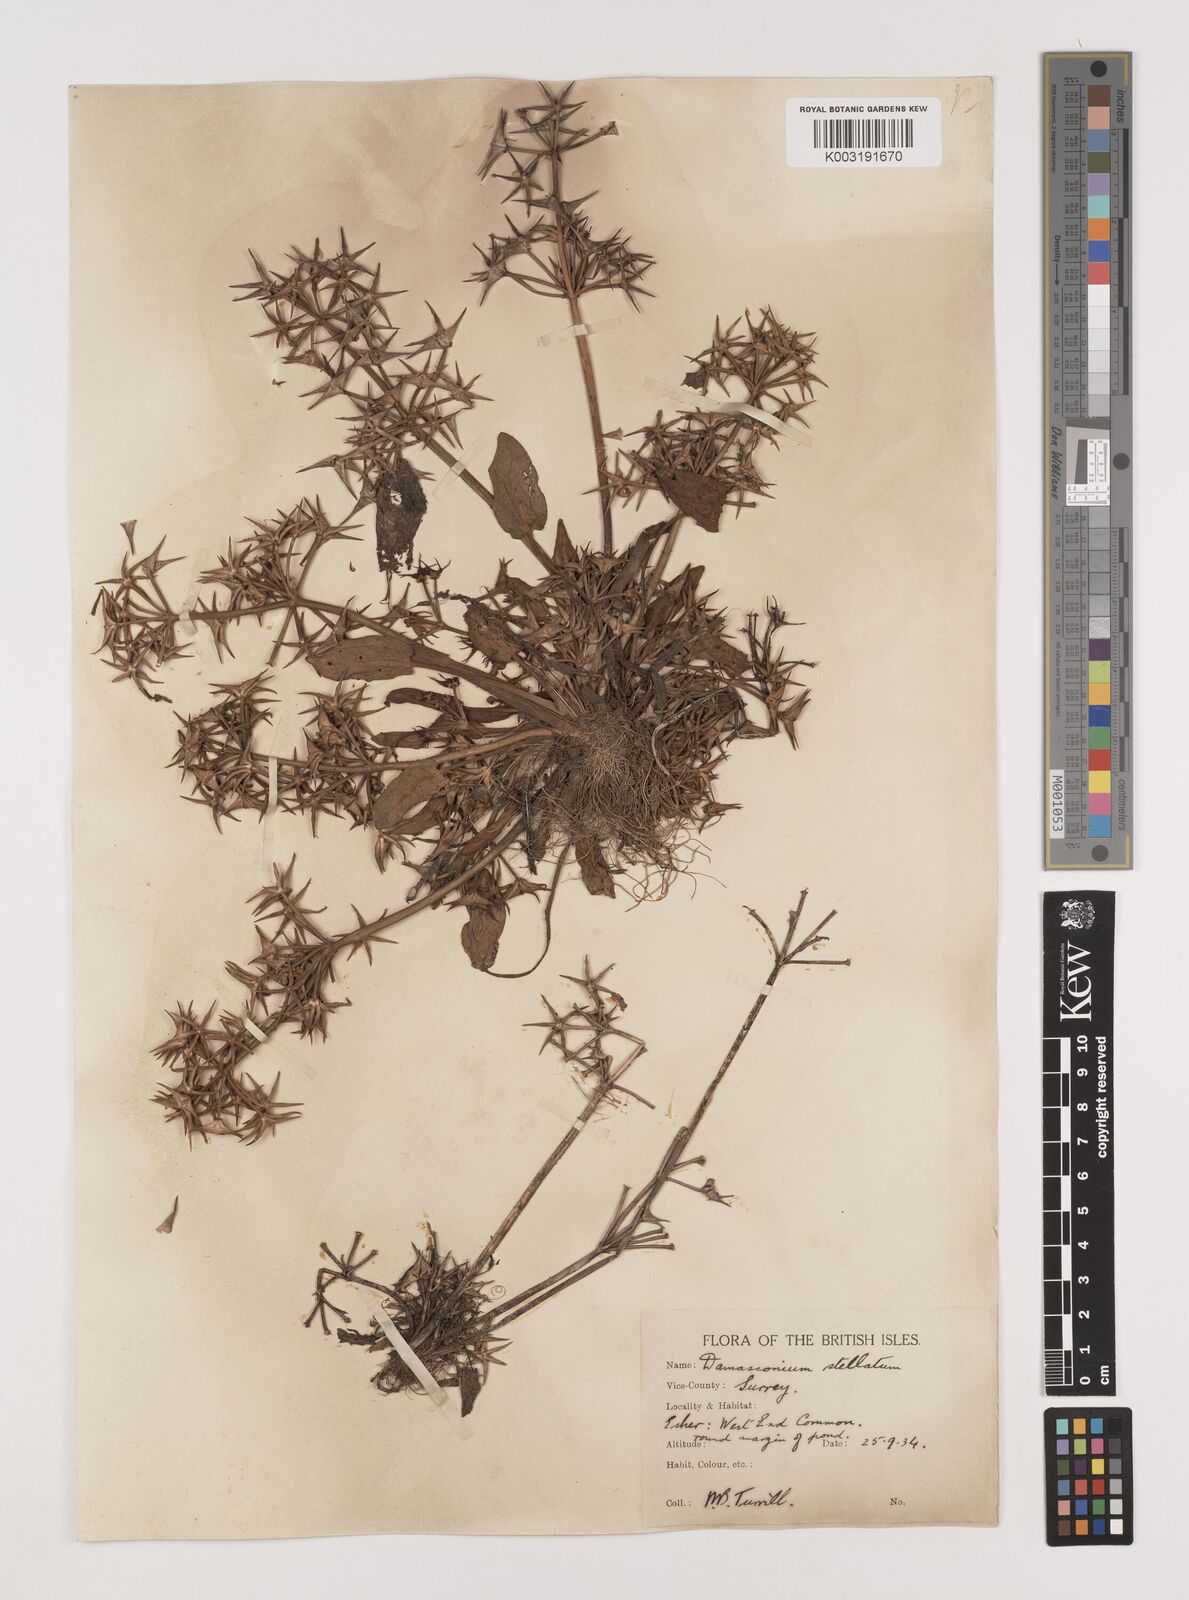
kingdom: Plantae
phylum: Tracheophyta
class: Liliopsida
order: Alismatales
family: Alismataceae
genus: Damasonium
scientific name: Damasonium alisma
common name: Starfruit
